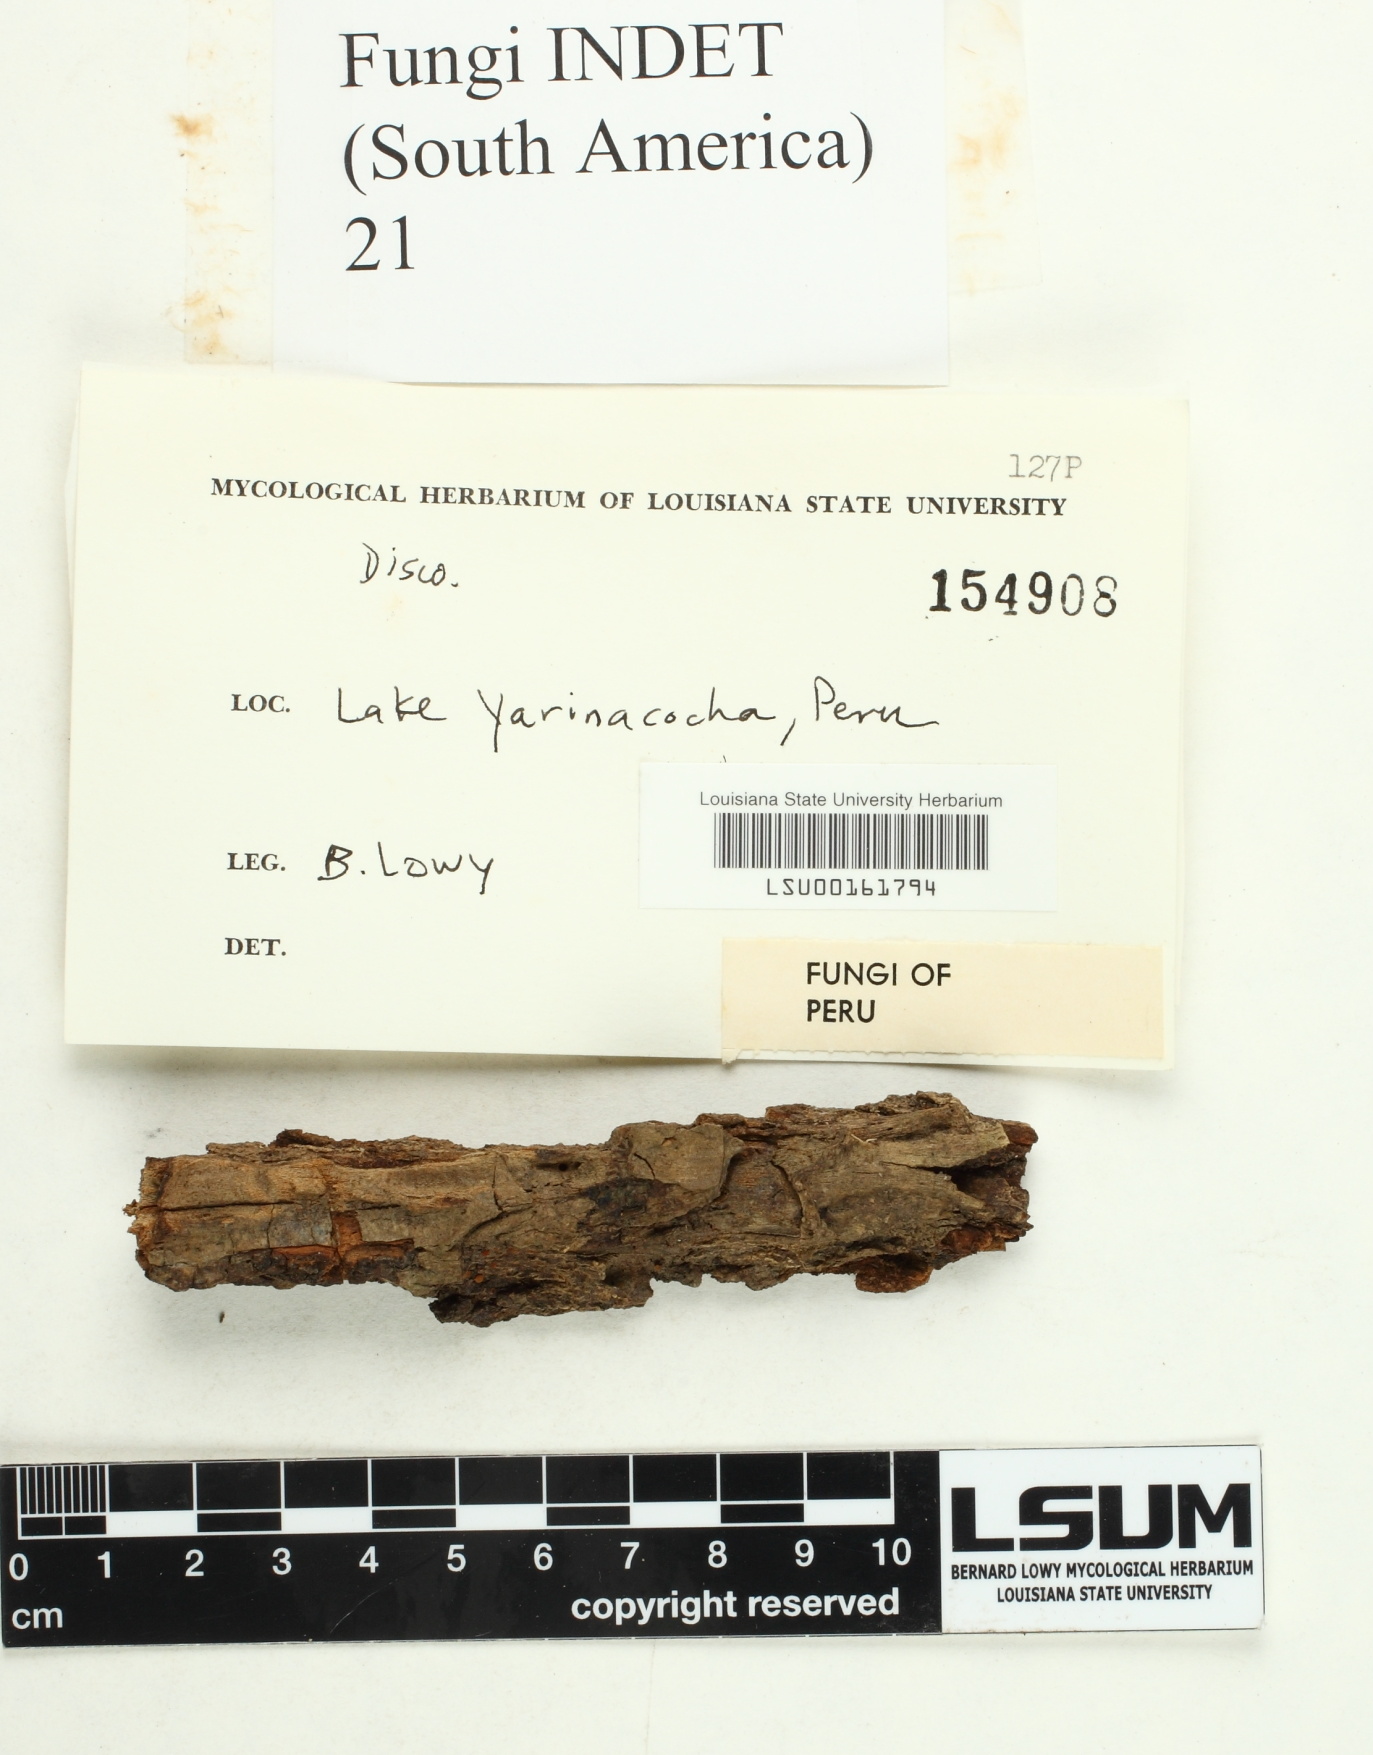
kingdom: Fungi
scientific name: Fungi
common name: Fungi
